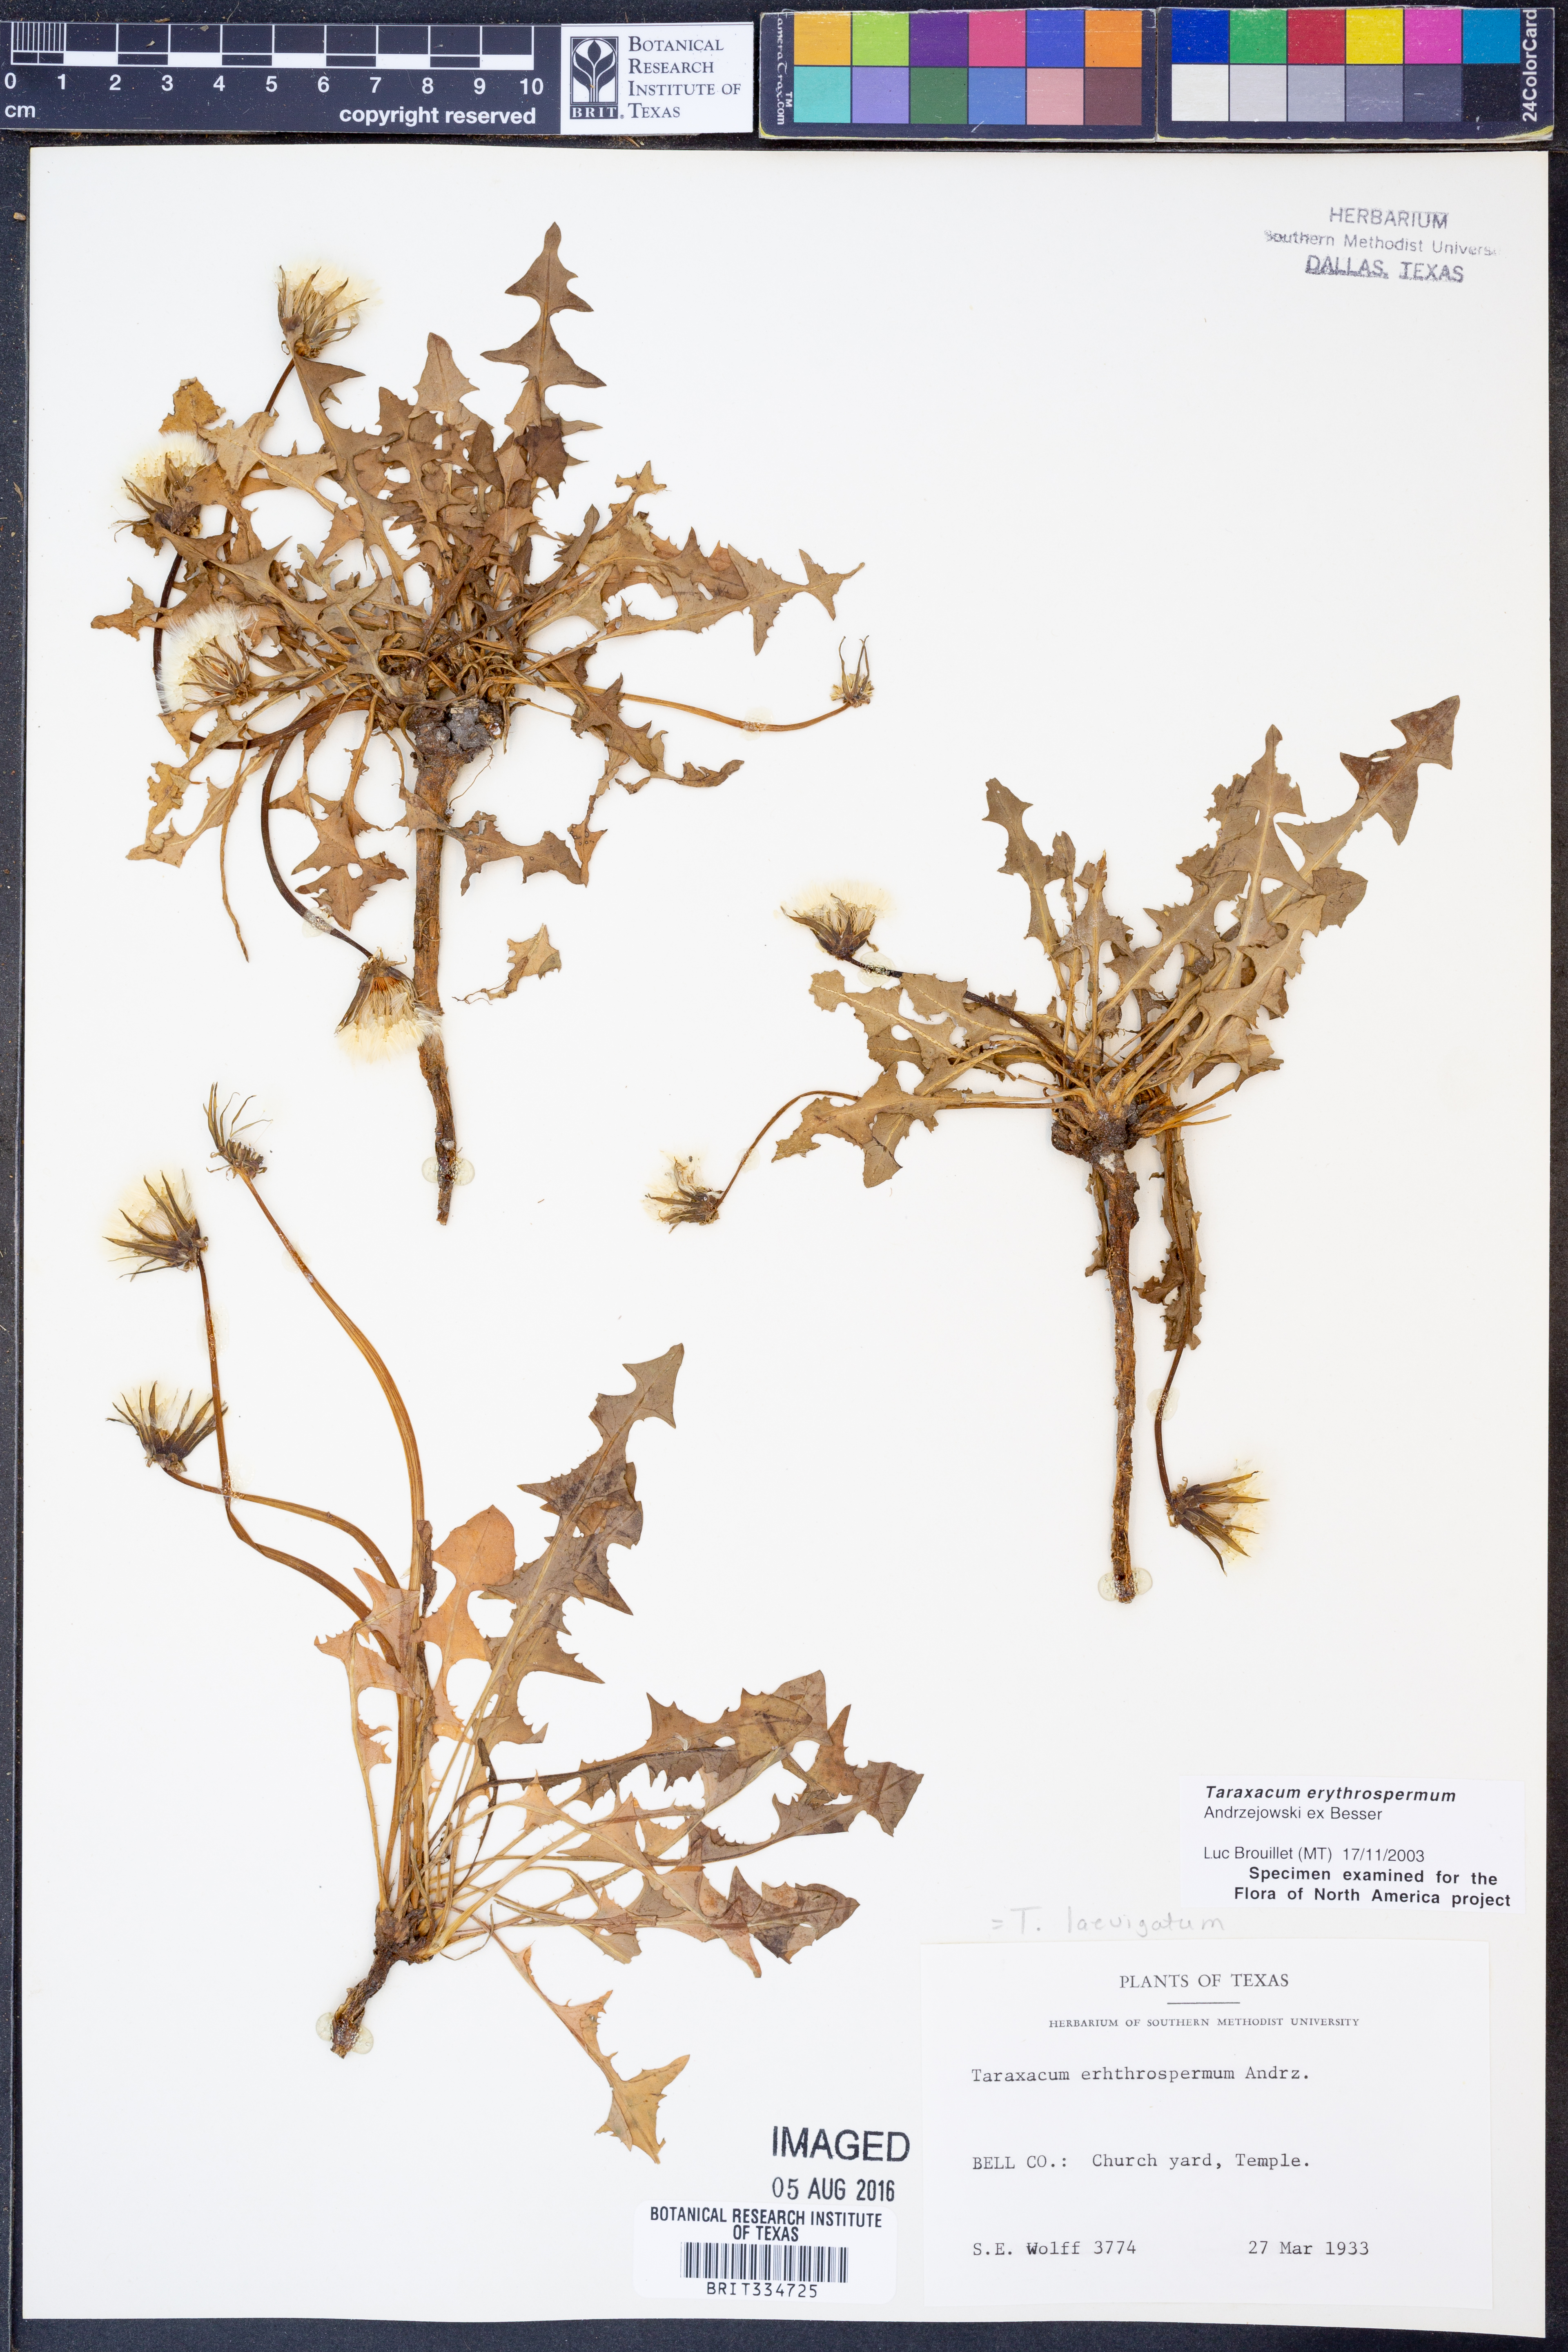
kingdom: Plantae
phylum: Tracheophyta
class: Magnoliopsida
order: Asterales
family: Asteraceae
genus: Taraxacum
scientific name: Taraxacum erythrospermum
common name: Rock dandelion
